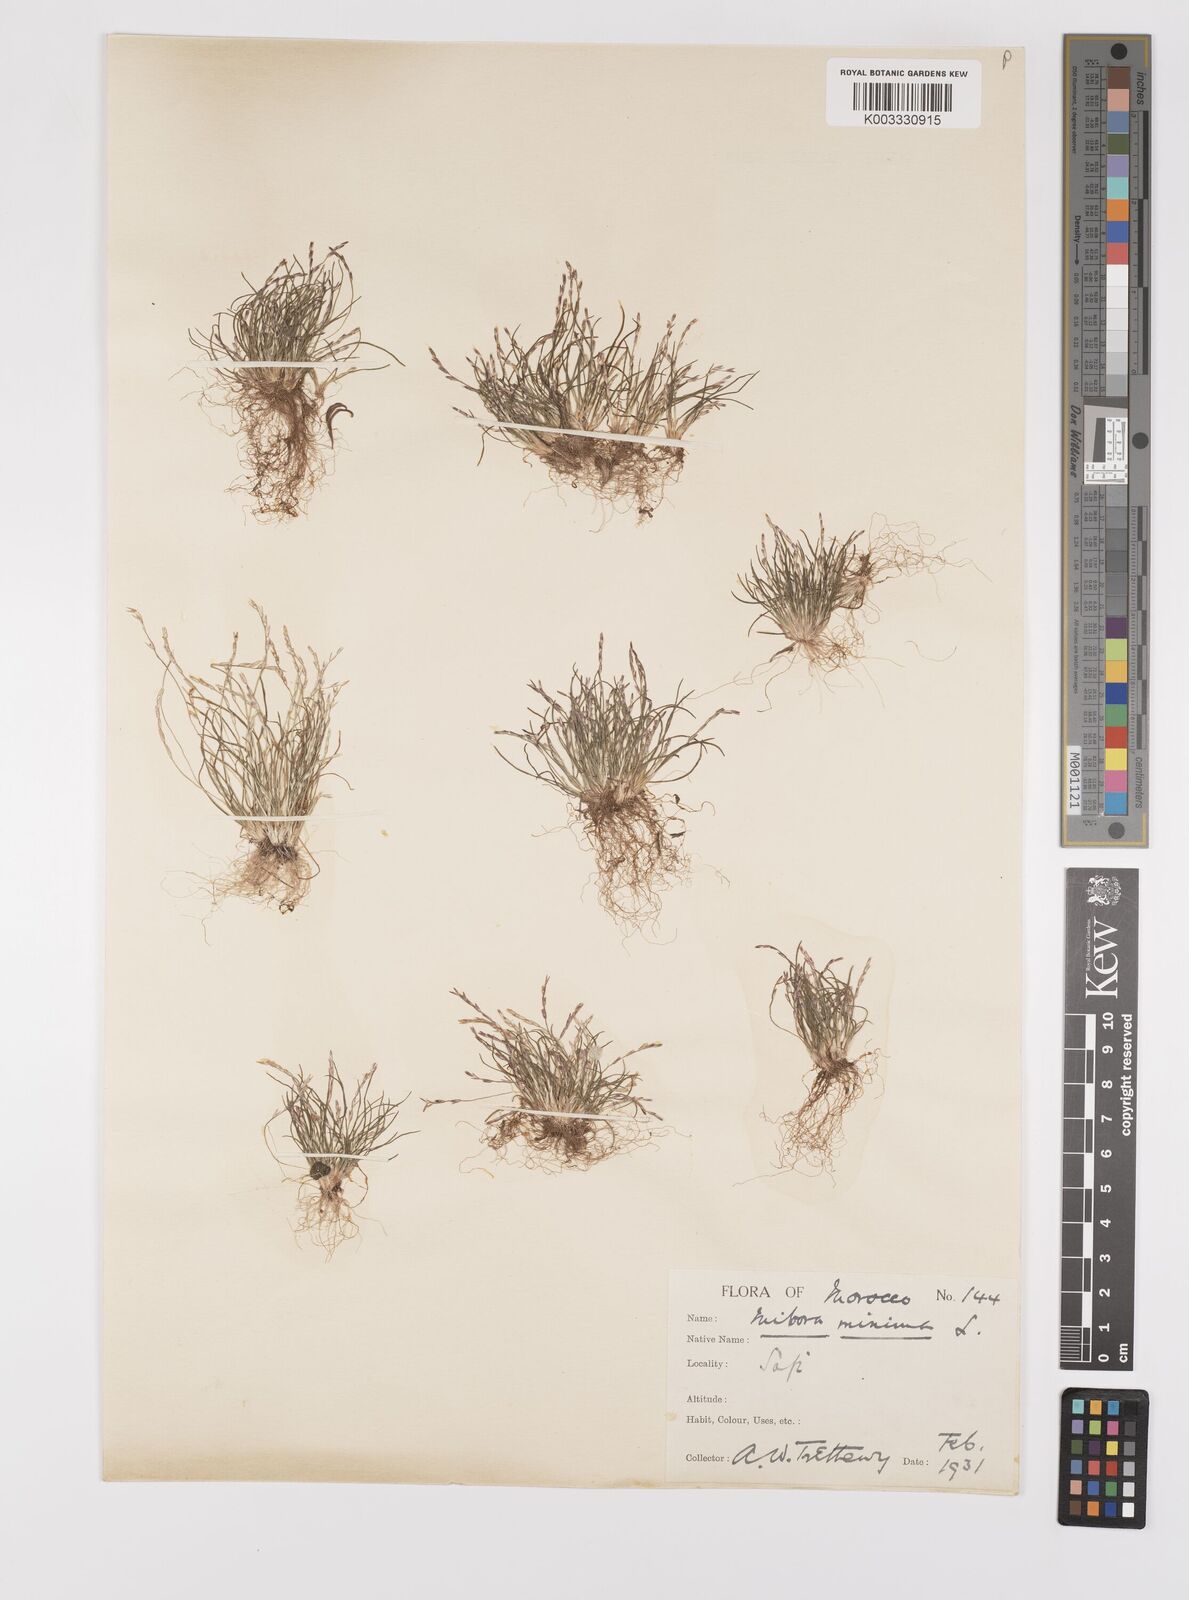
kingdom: Plantae
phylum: Tracheophyta
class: Liliopsida
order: Poales
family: Poaceae
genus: Mibora
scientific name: Mibora maroccana
